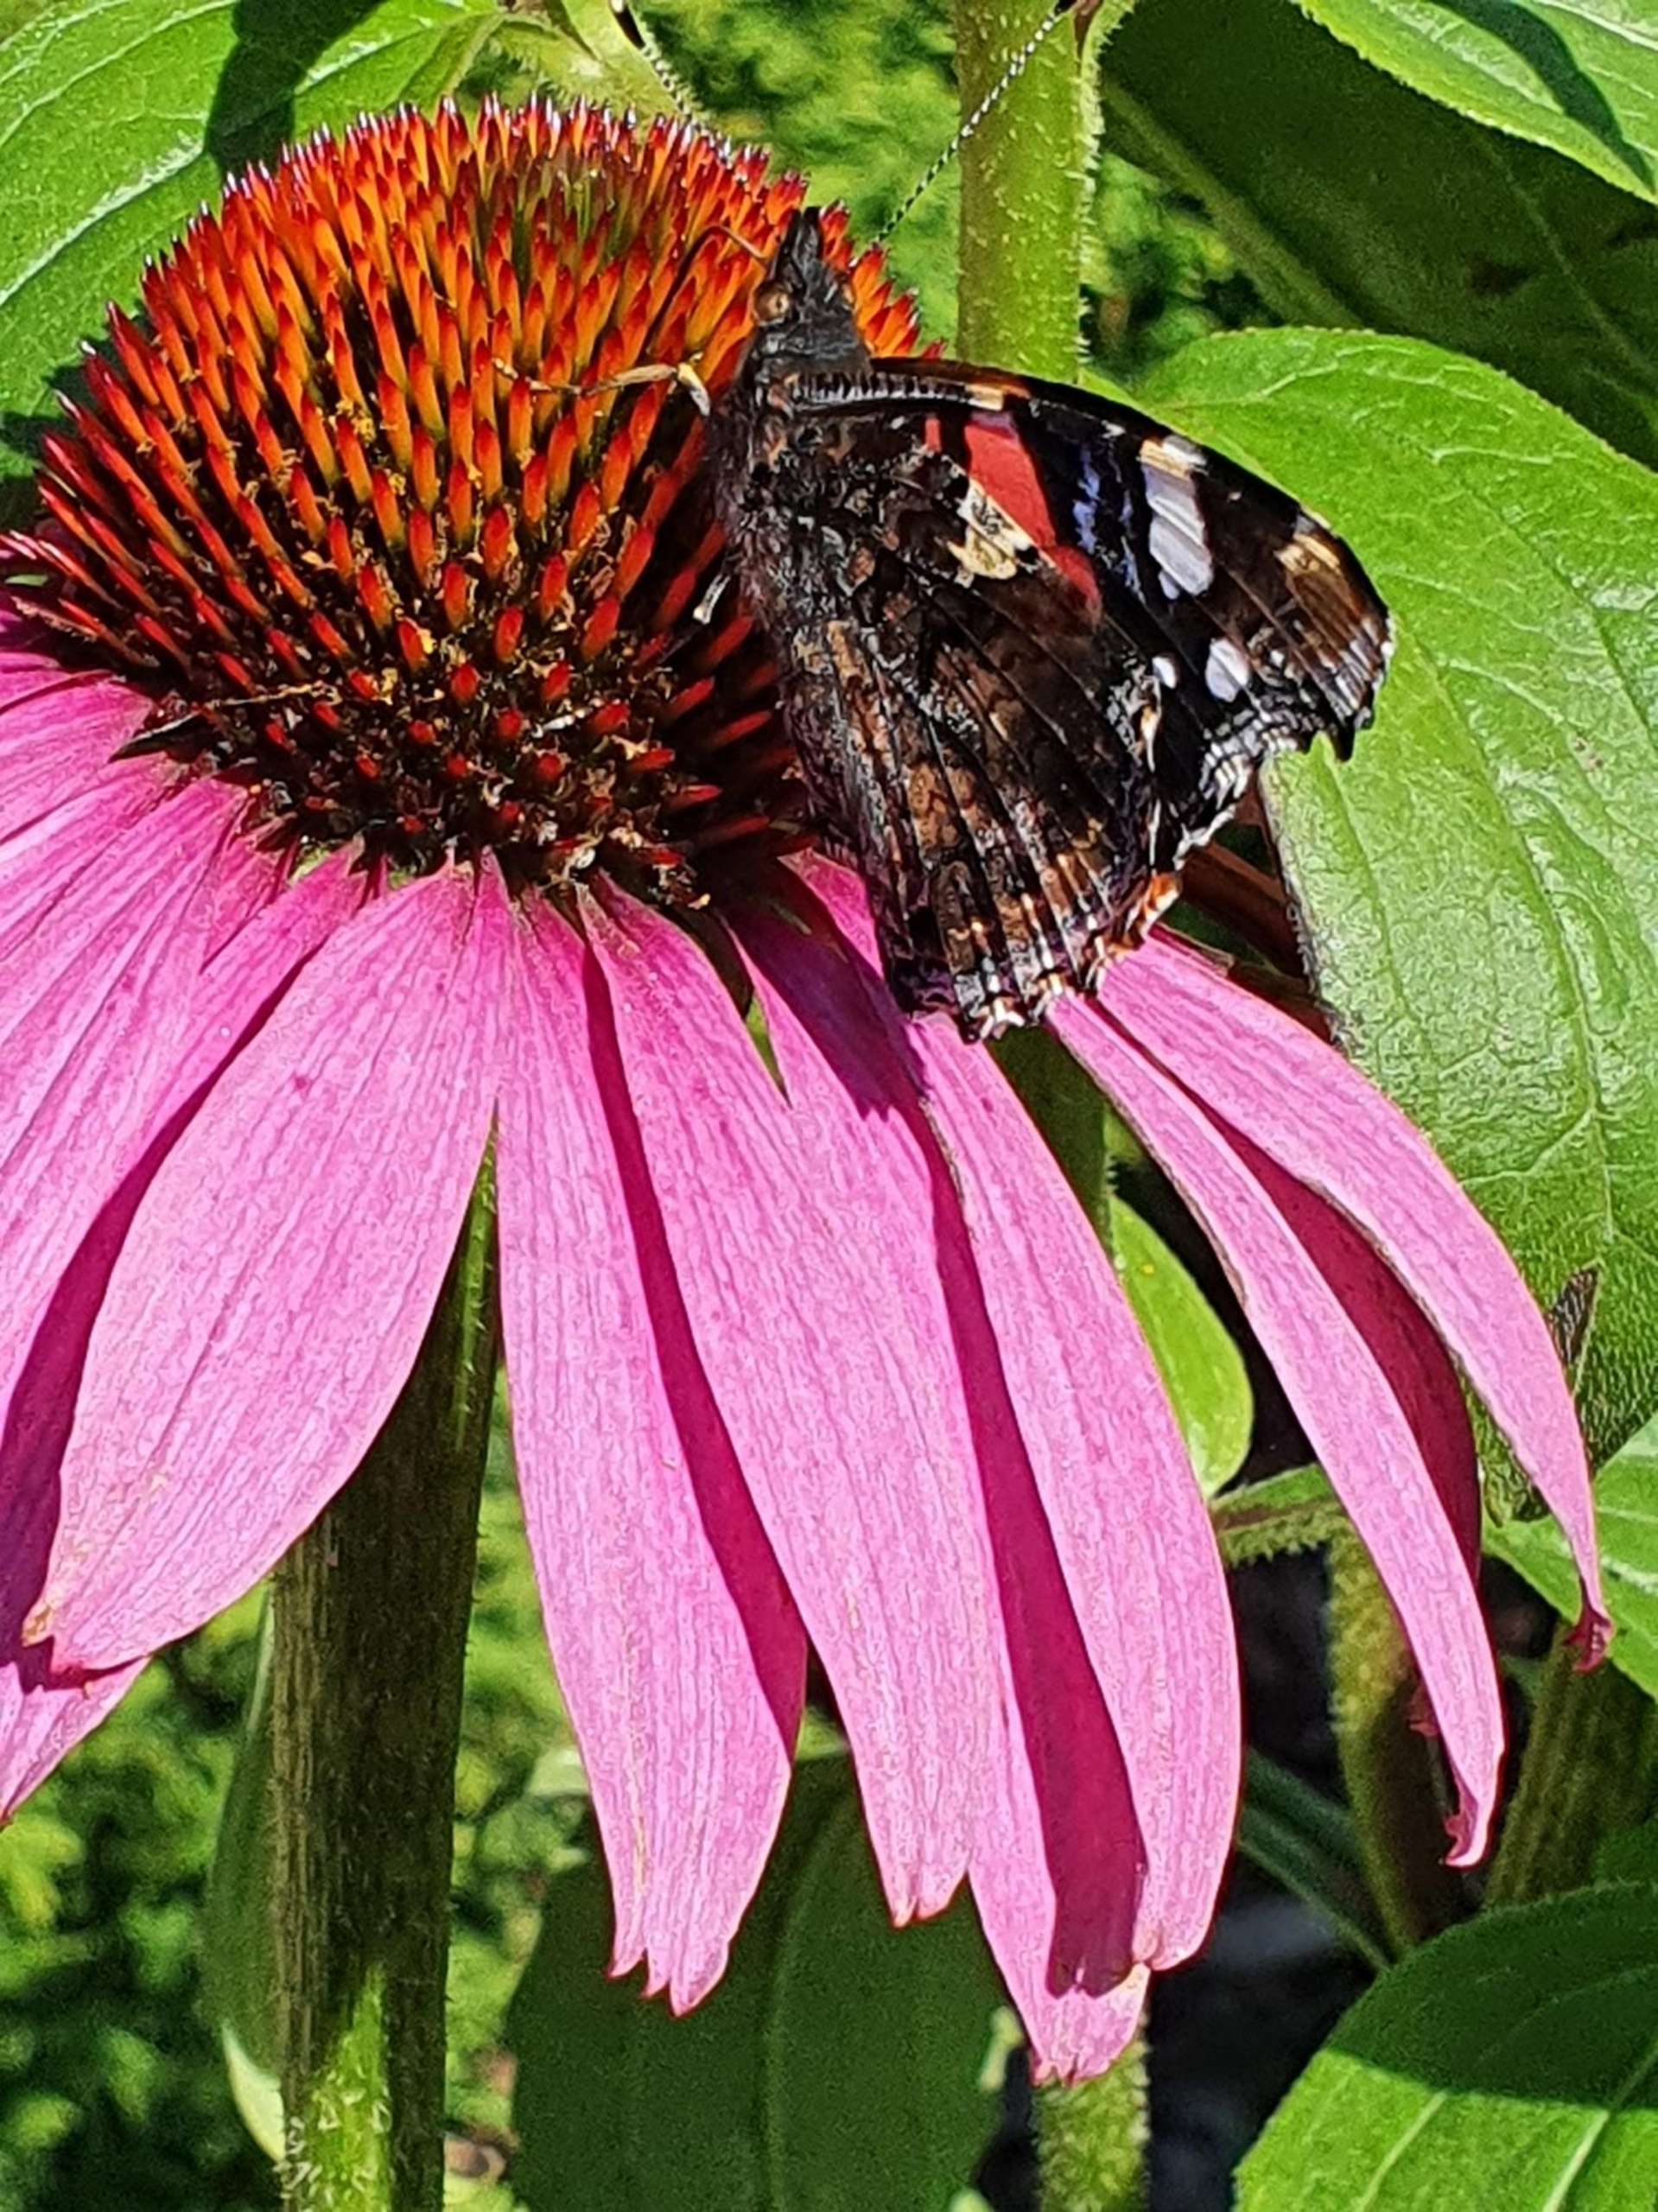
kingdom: Animalia
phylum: Arthropoda
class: Insecta
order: Lepidoptera
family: Nymphalidae
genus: Vanessa
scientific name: Vanessa atalanta
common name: Admiral
